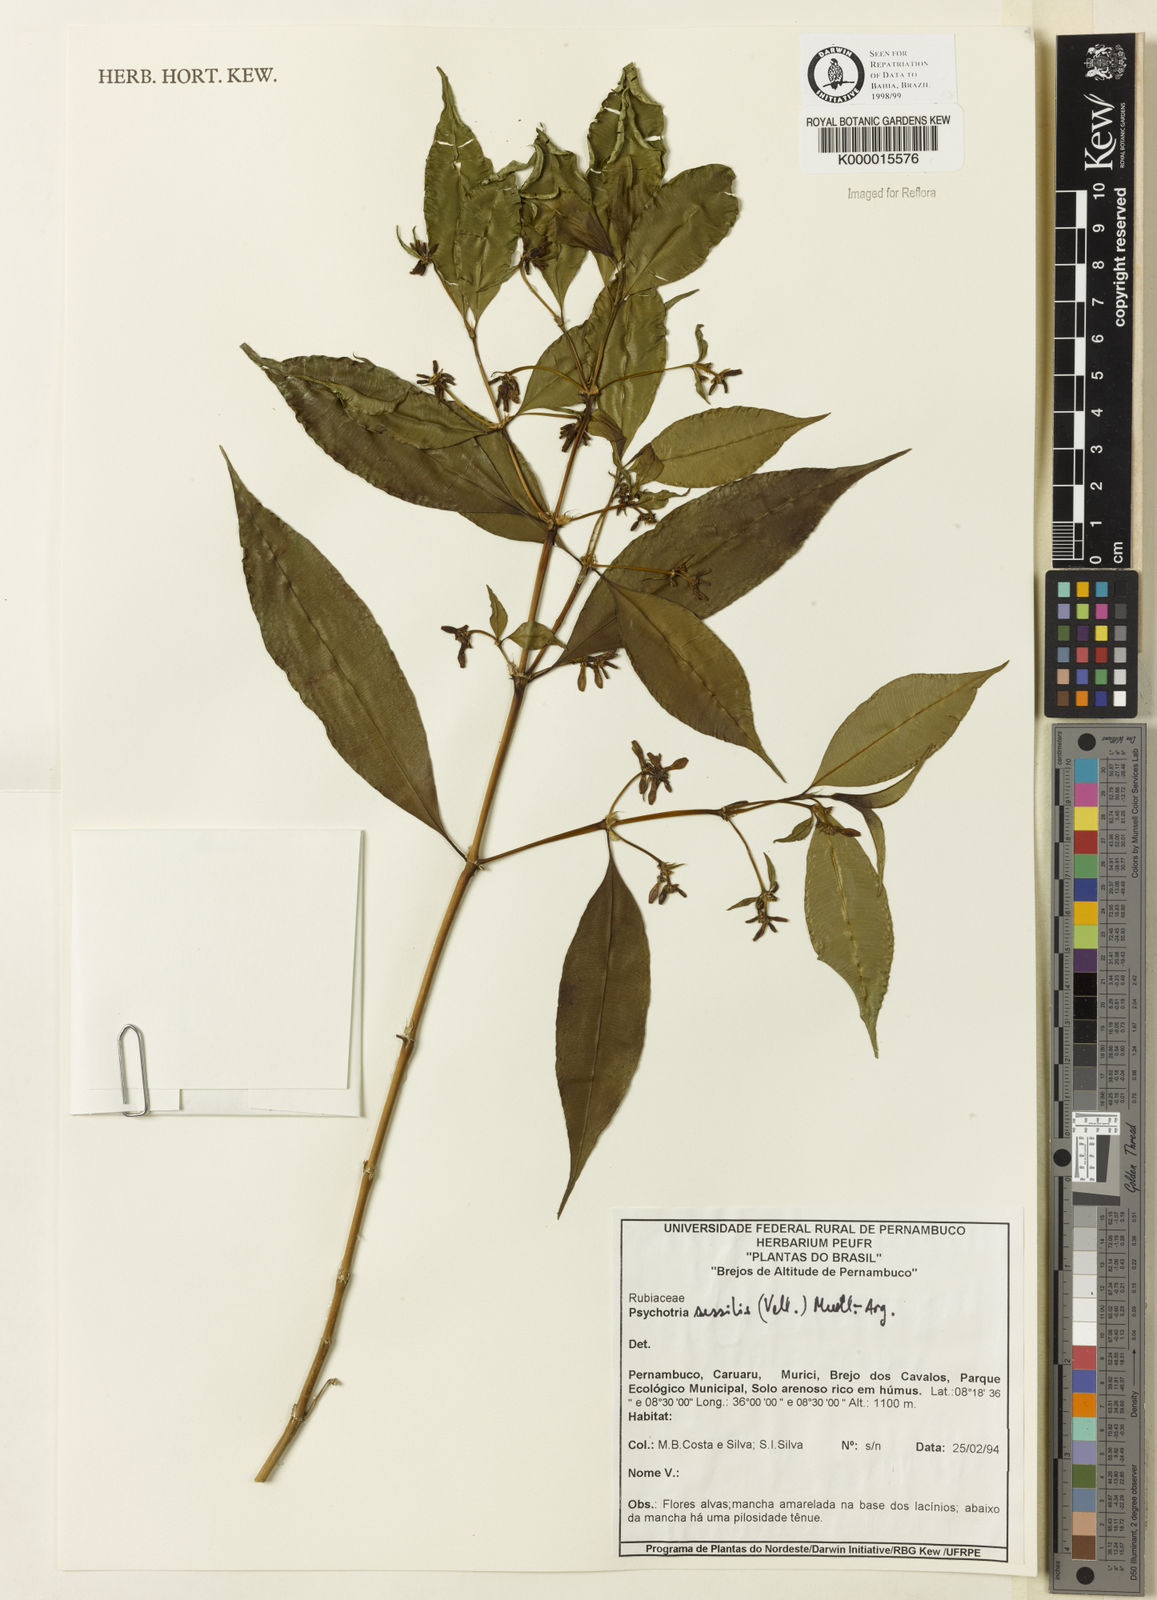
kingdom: Plantae
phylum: Tracheophyta
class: Magnoliopsida
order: Gentianales
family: Rubiaceae
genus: Psychotria
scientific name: Psychotria
